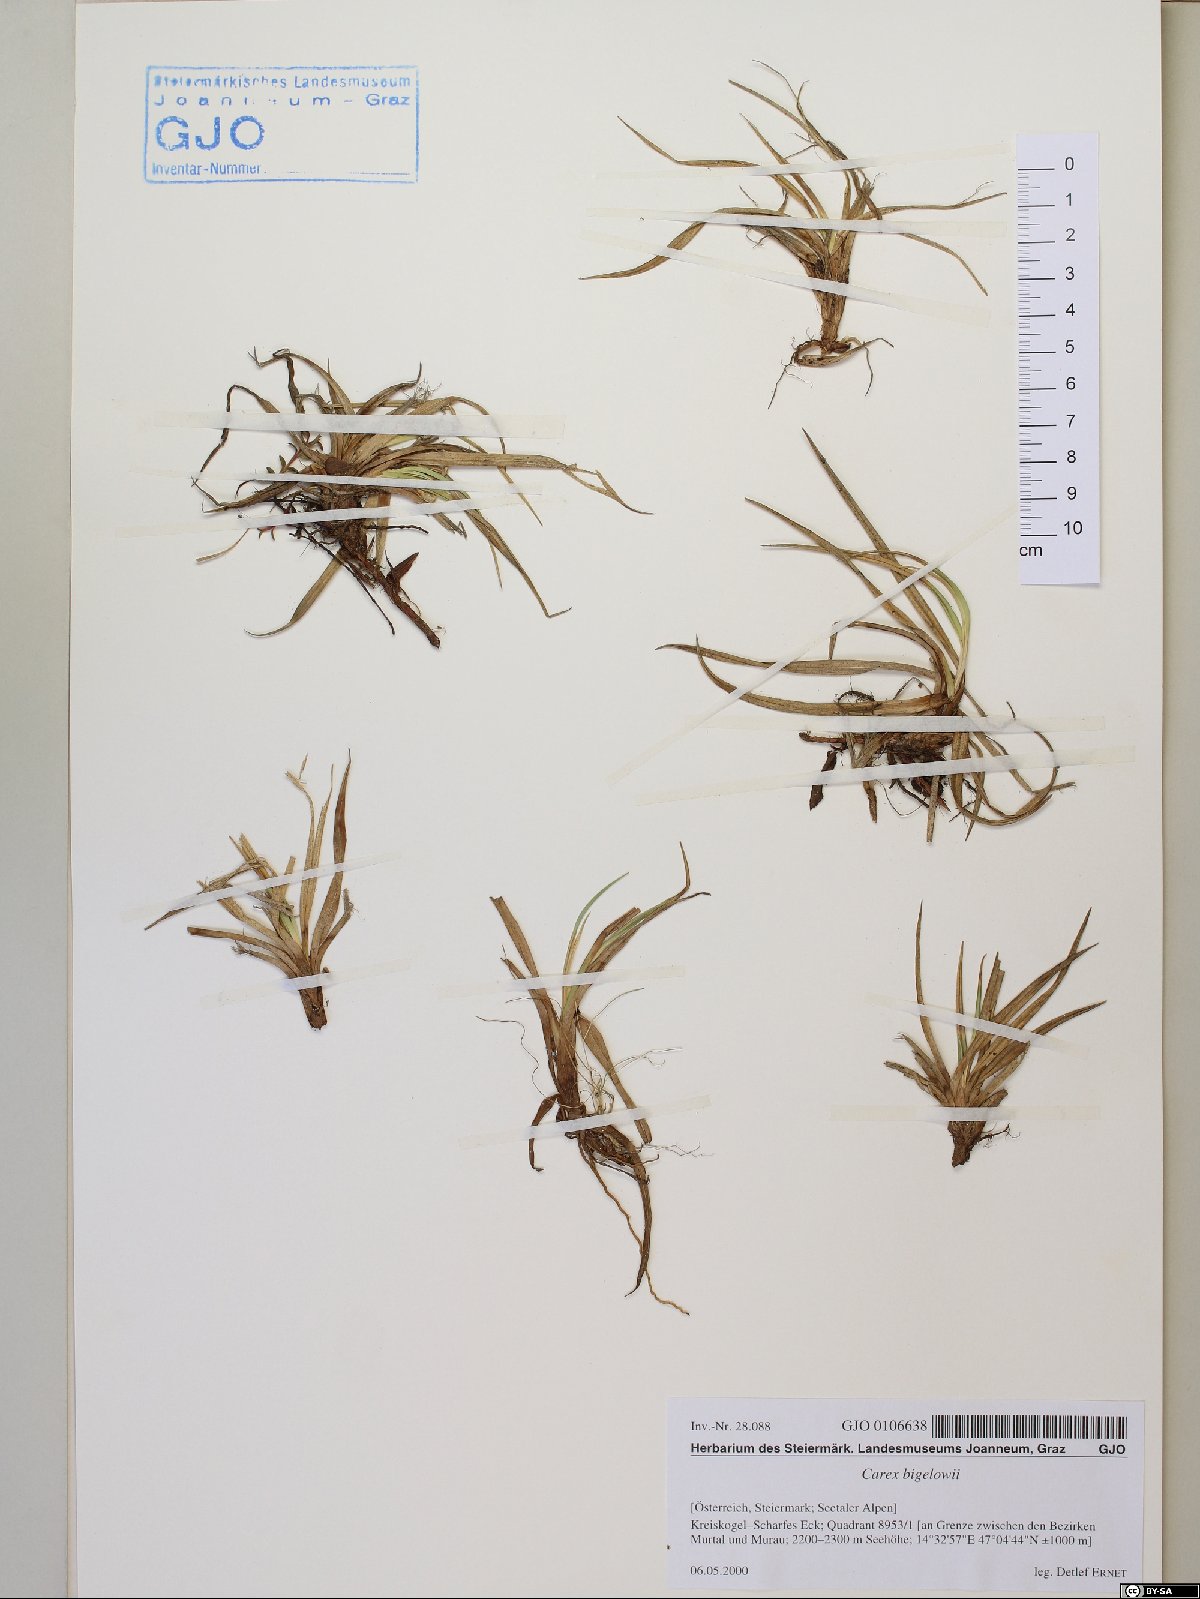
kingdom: Plantae
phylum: Tracheophyta
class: Liliopsida
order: Poales
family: Cyperaceae
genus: Carex
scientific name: Carex bigelowii
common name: Stiff sedge
